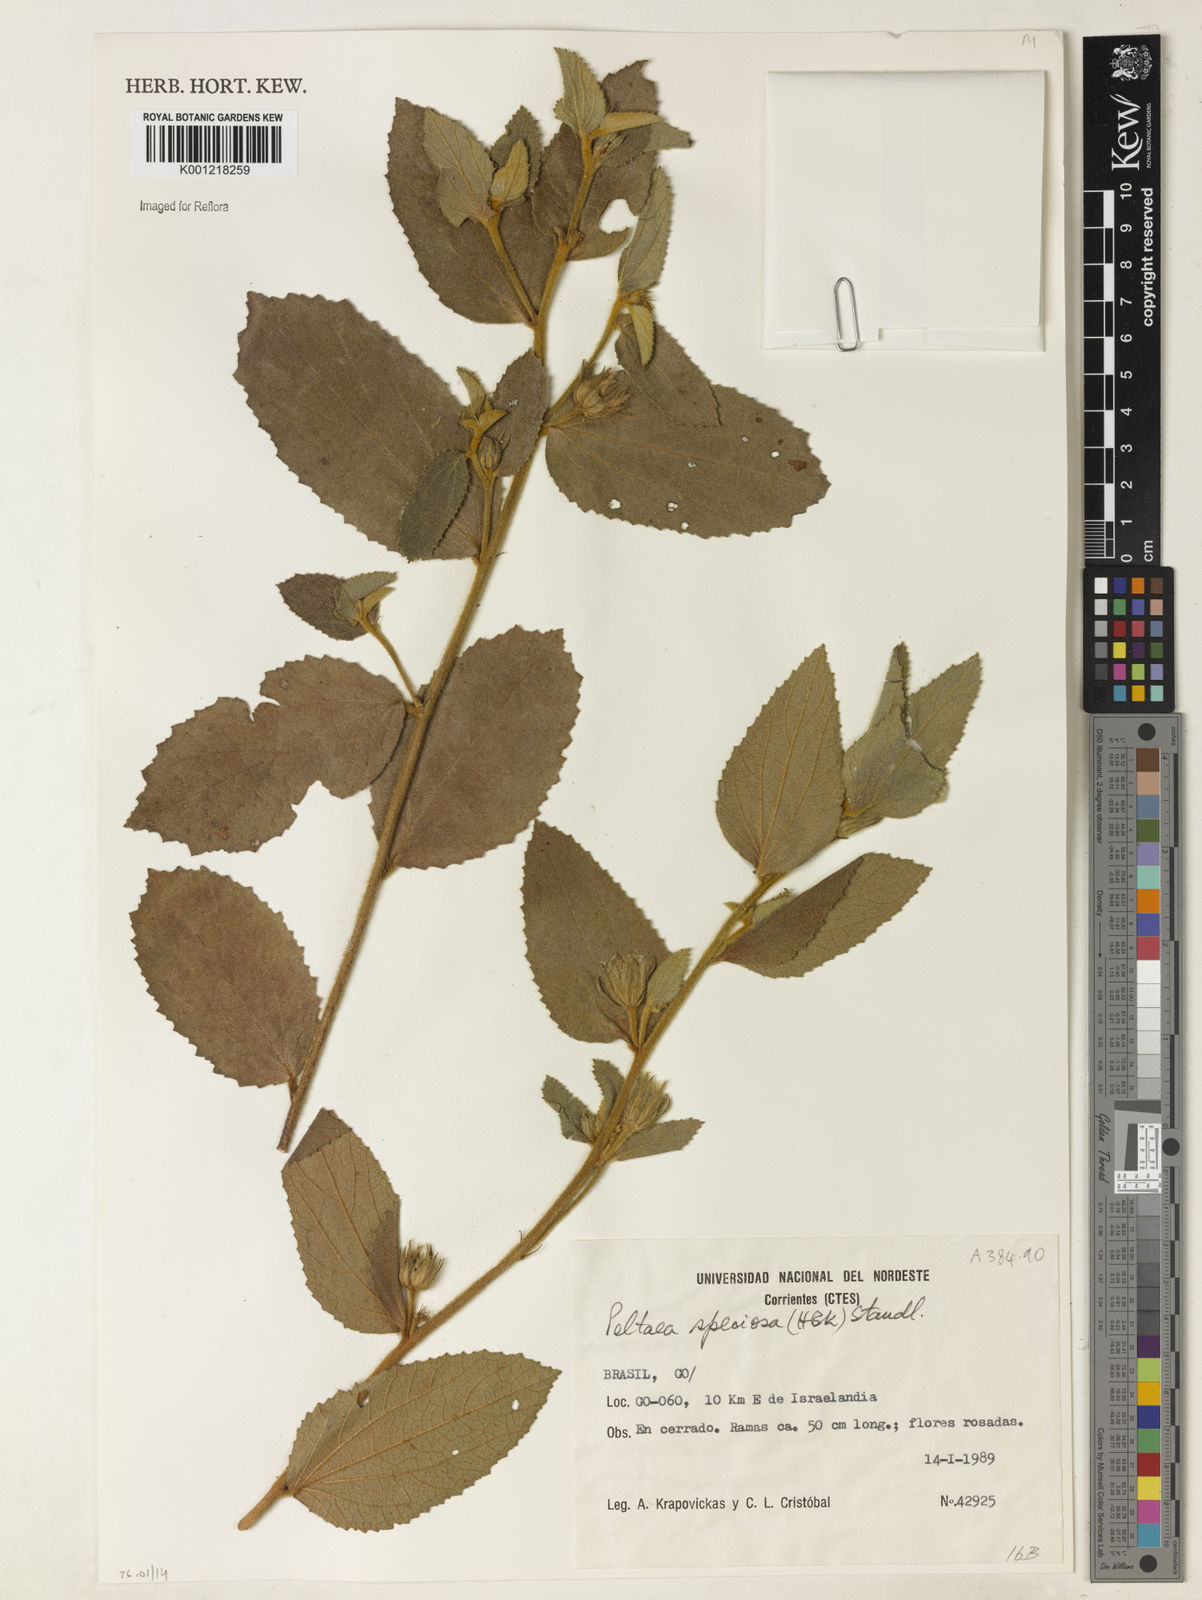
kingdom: Plantae
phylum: Tracheophyta
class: Magnoliopsida
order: Malvales
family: Malvaceae
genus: Peltaea
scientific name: Peltaea speciosa
